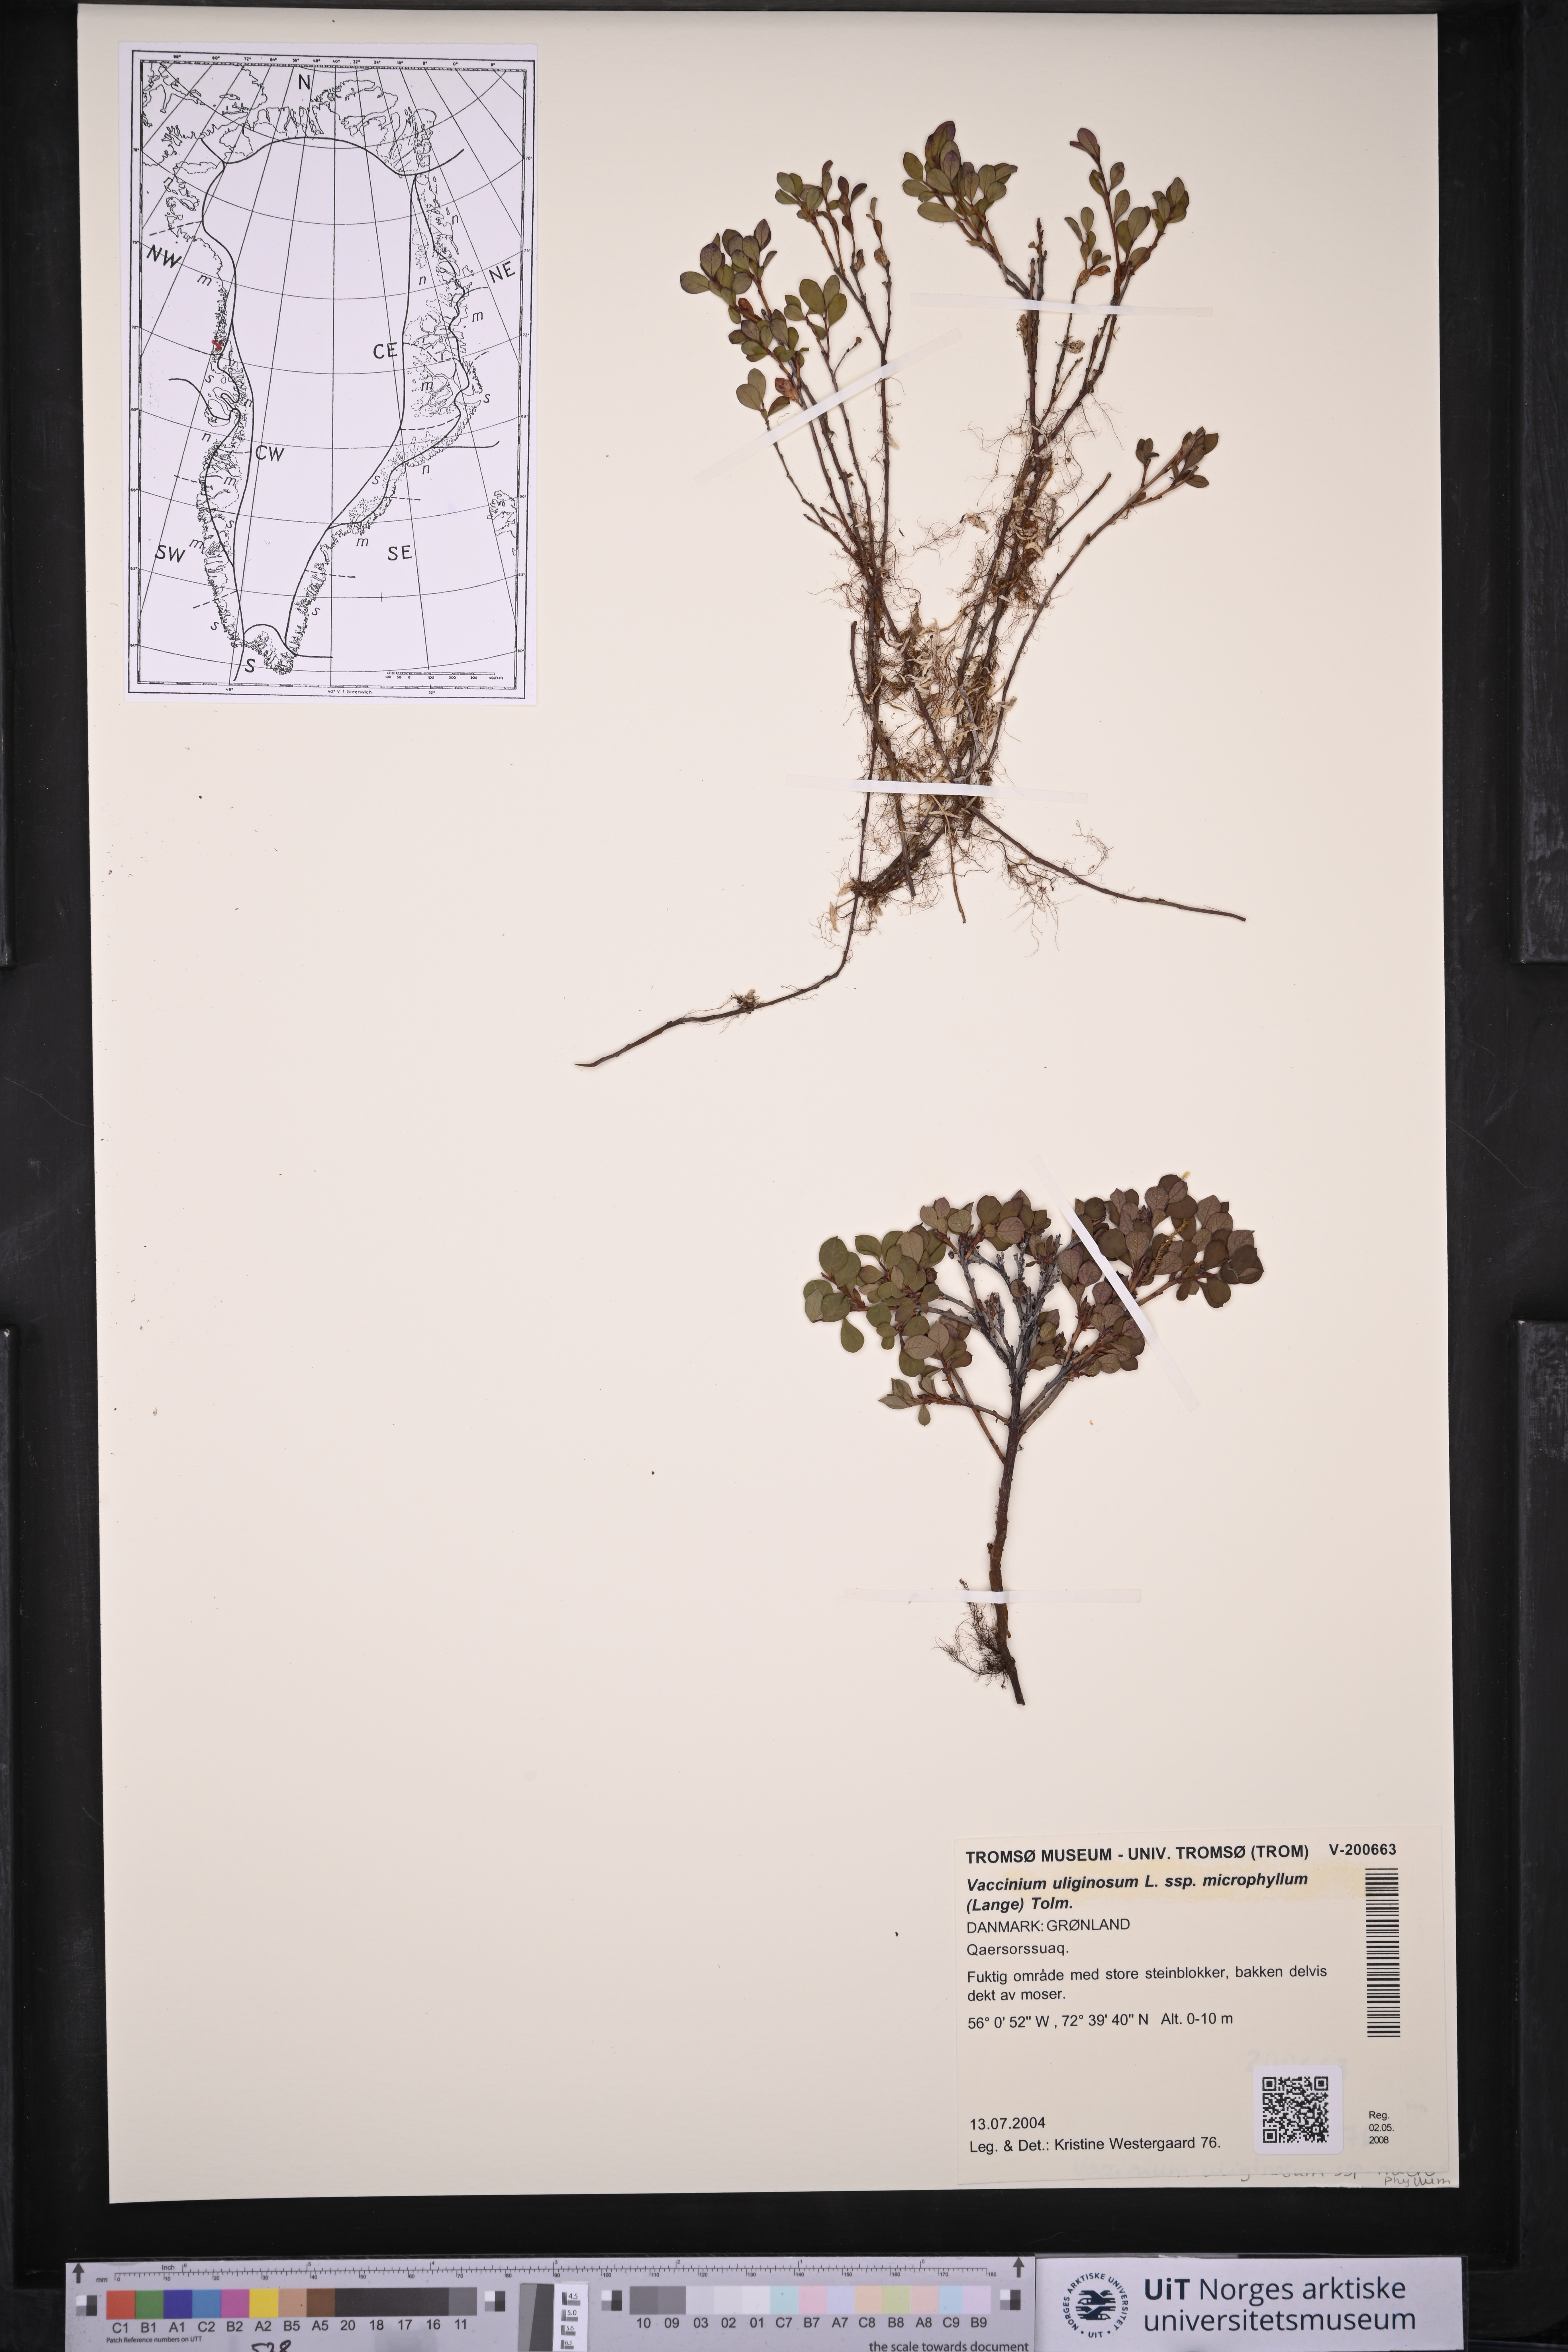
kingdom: Plantae
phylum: Tracheophyta
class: Magnoliopsida
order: Ericales
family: Ericaceae
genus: Vaccinium
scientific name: Vaccinium gaultherioides
